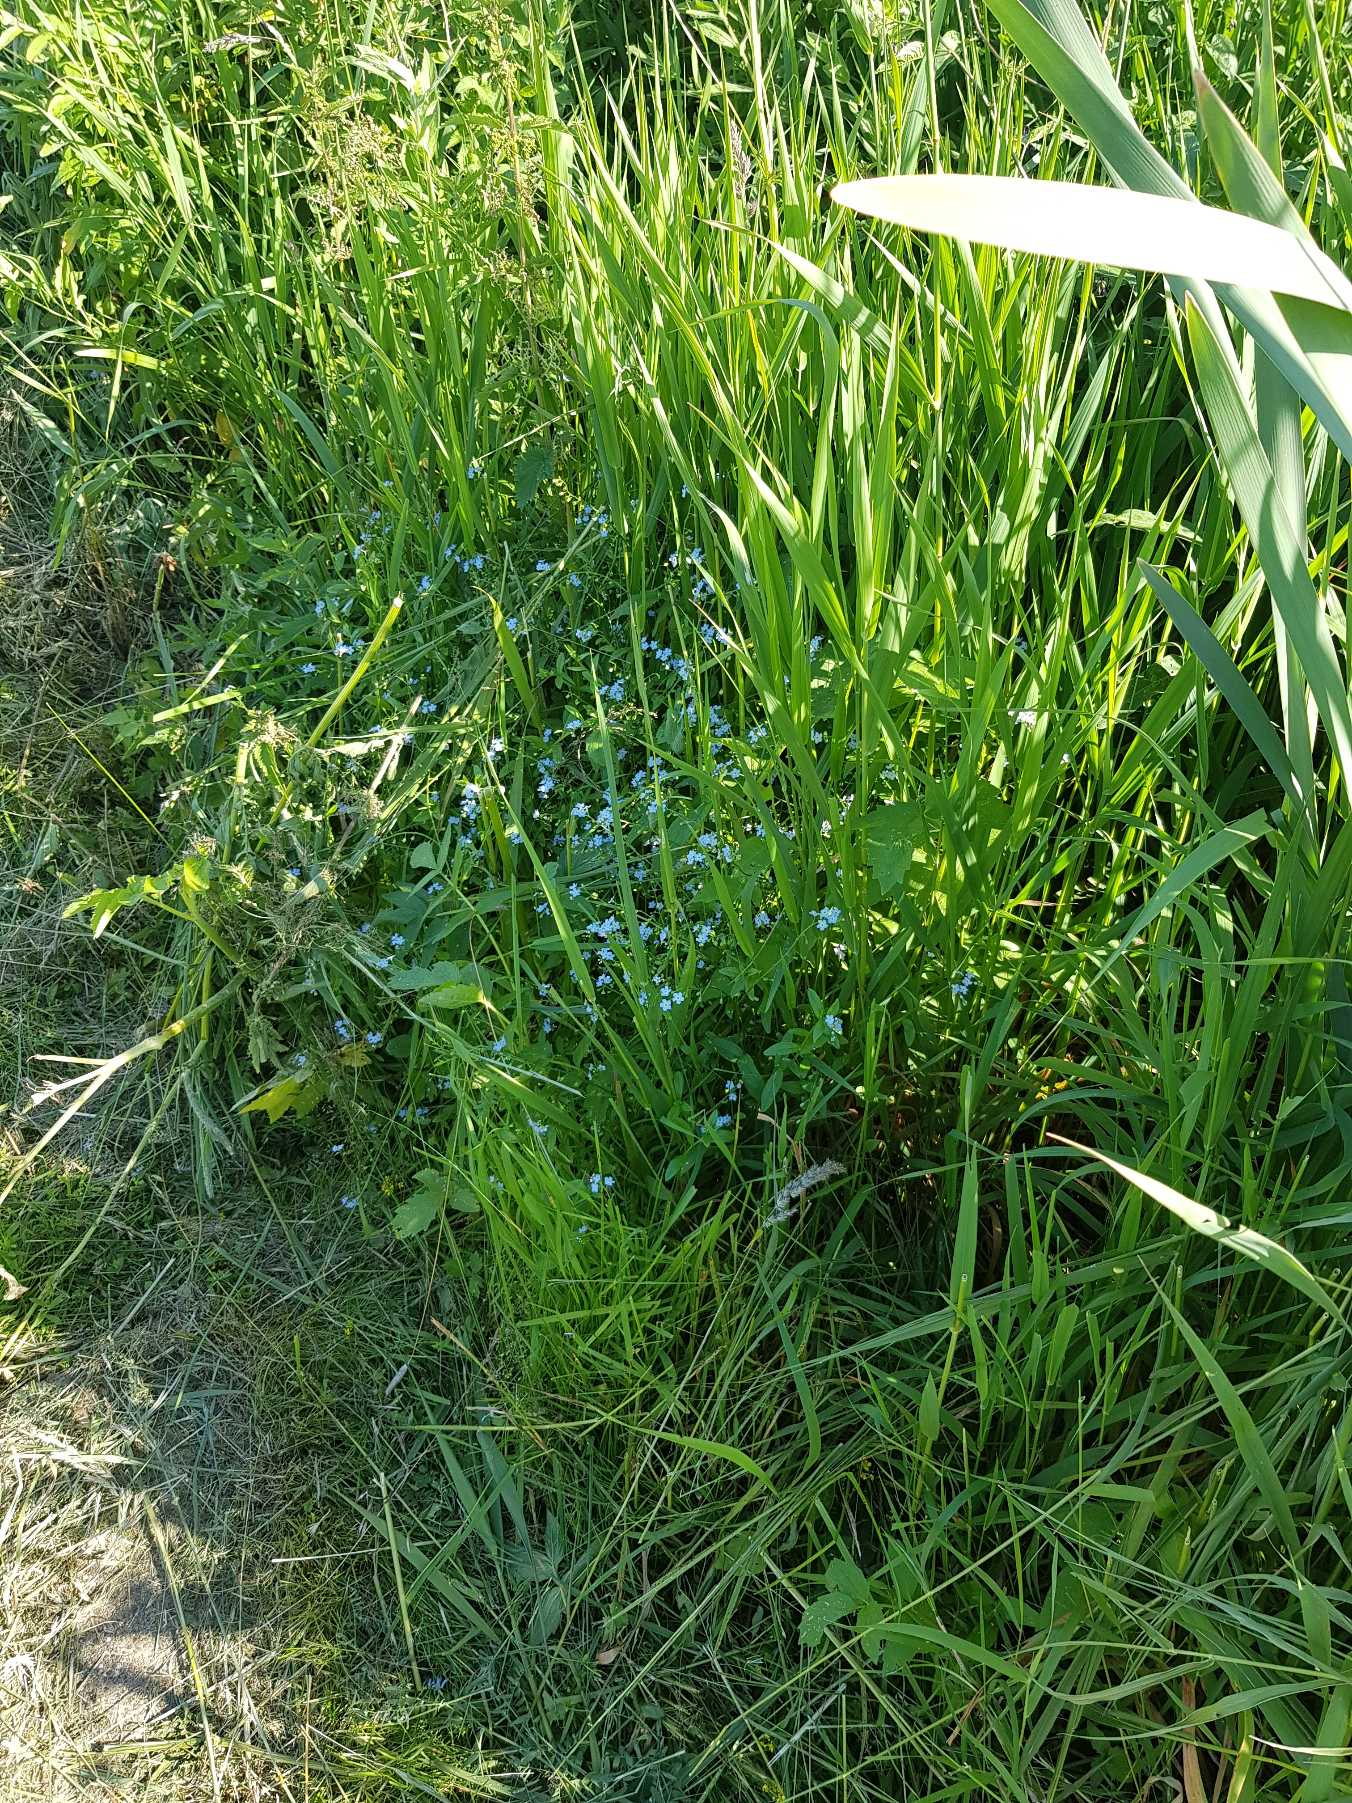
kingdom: Plantae
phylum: Tracheophyta
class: Magnoliopsida
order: Boraginales
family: Boraginaceae
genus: Myosotis
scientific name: Myosotis scorpioides
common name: Eng-forglemmigej
